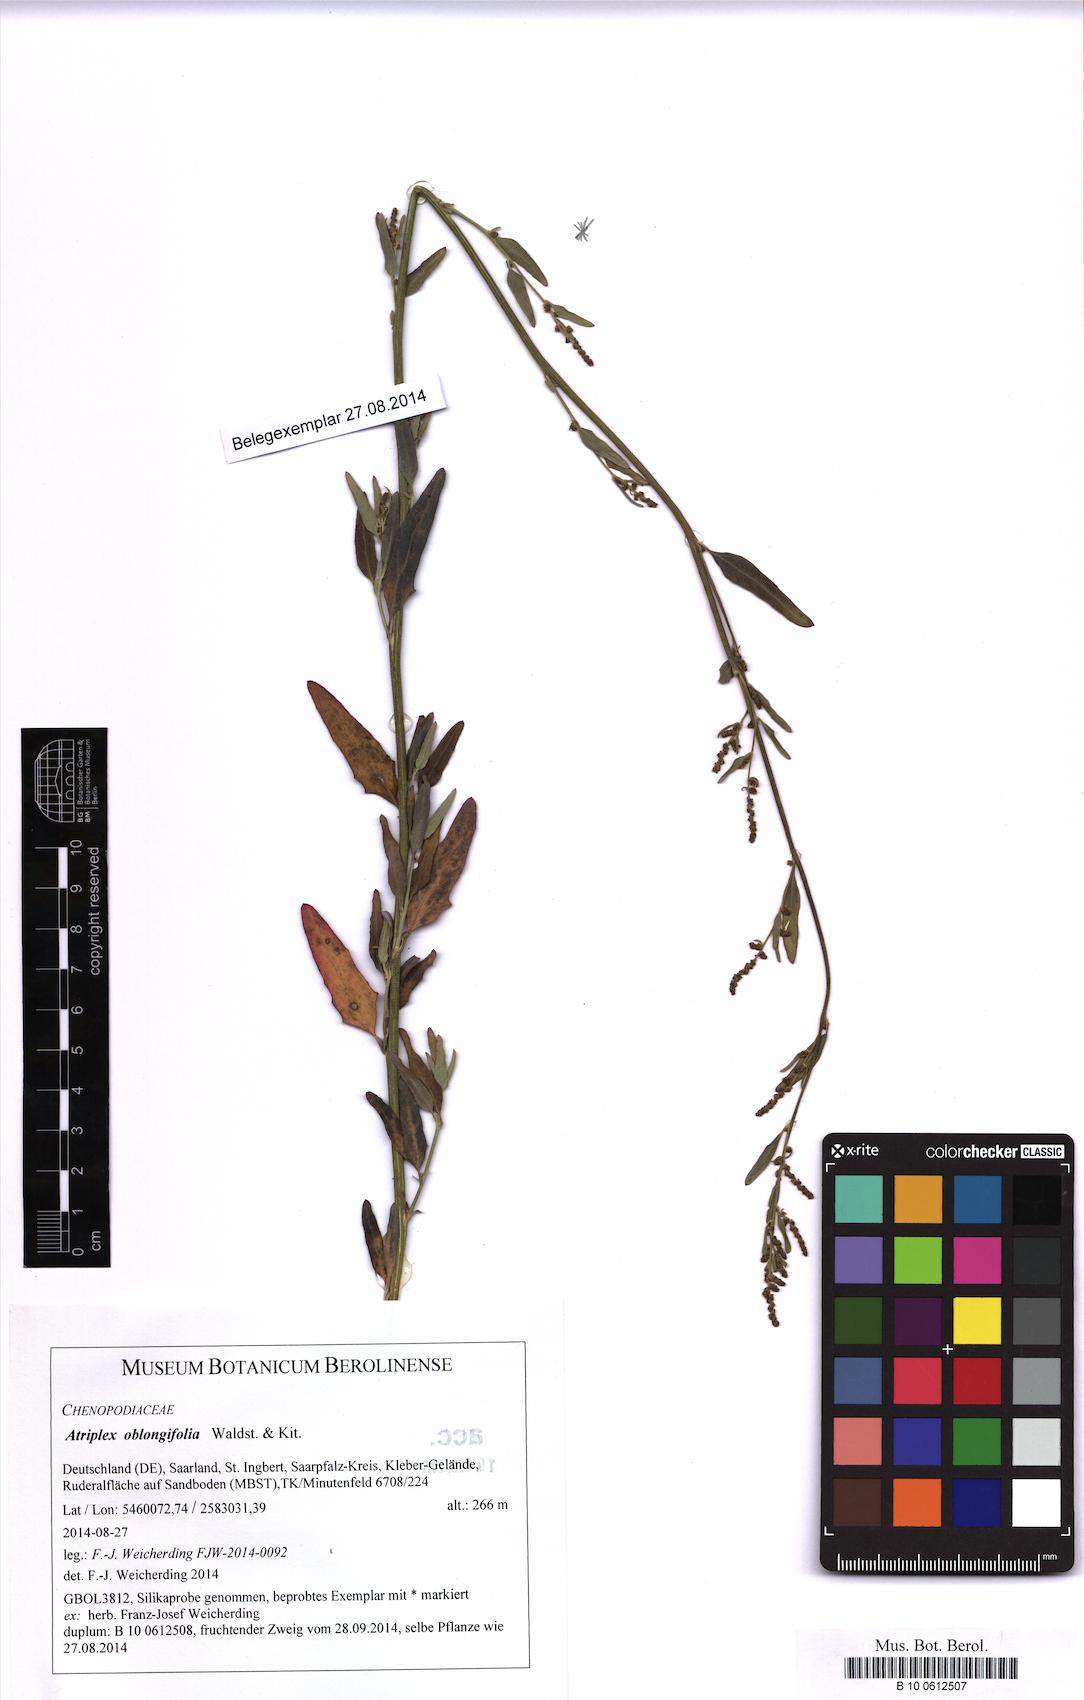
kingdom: Plantae
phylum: Tracheophyta
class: Magnoliopsida
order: Caryophyllales
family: Amaranthaceae
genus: Atriplex
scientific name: Atriplex oblongifolia
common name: Oblongleaf orache
